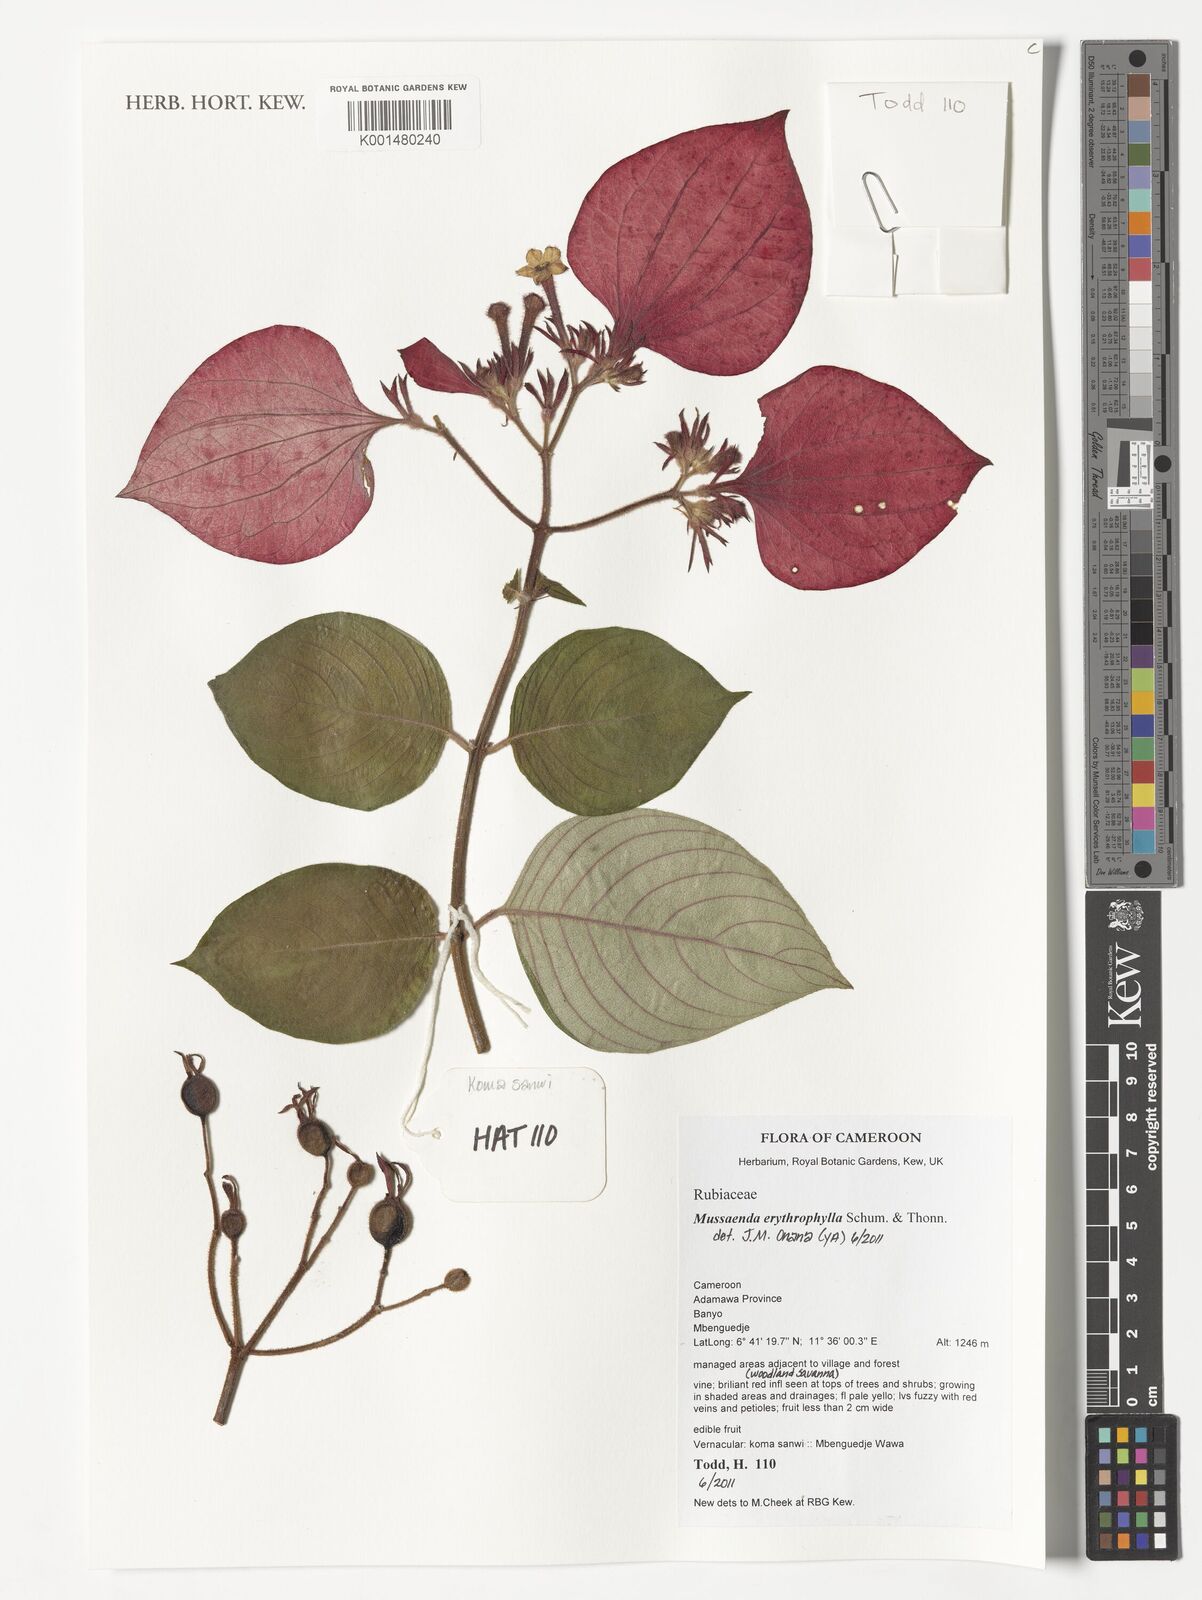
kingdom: Plantae
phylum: Tracheophyta
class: Magnoliopsida
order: Gentianales
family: Rubiaceae
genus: Mussaenda
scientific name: Mussaenda erythrophylla
